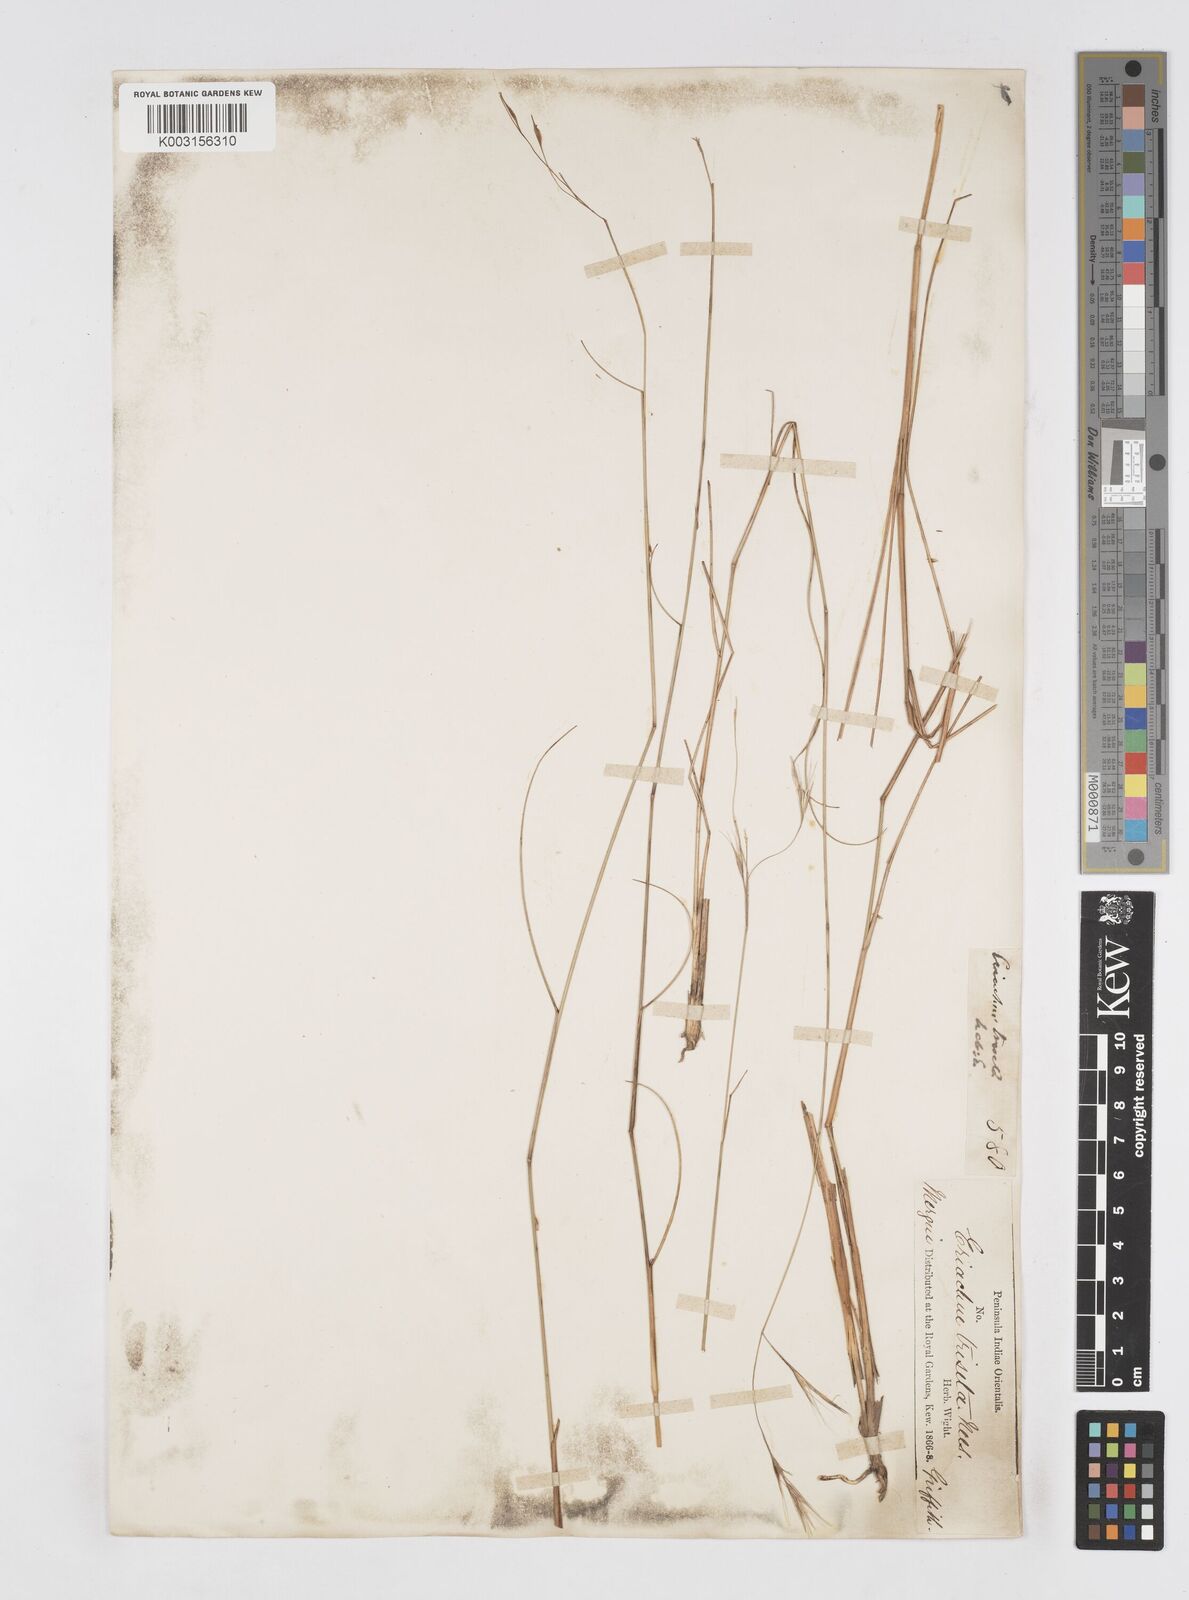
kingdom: Plantae
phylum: Tracheophyta
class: Liliopsida
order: Poales
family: Poaceae
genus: Eriachne
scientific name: Eriachne triseta
